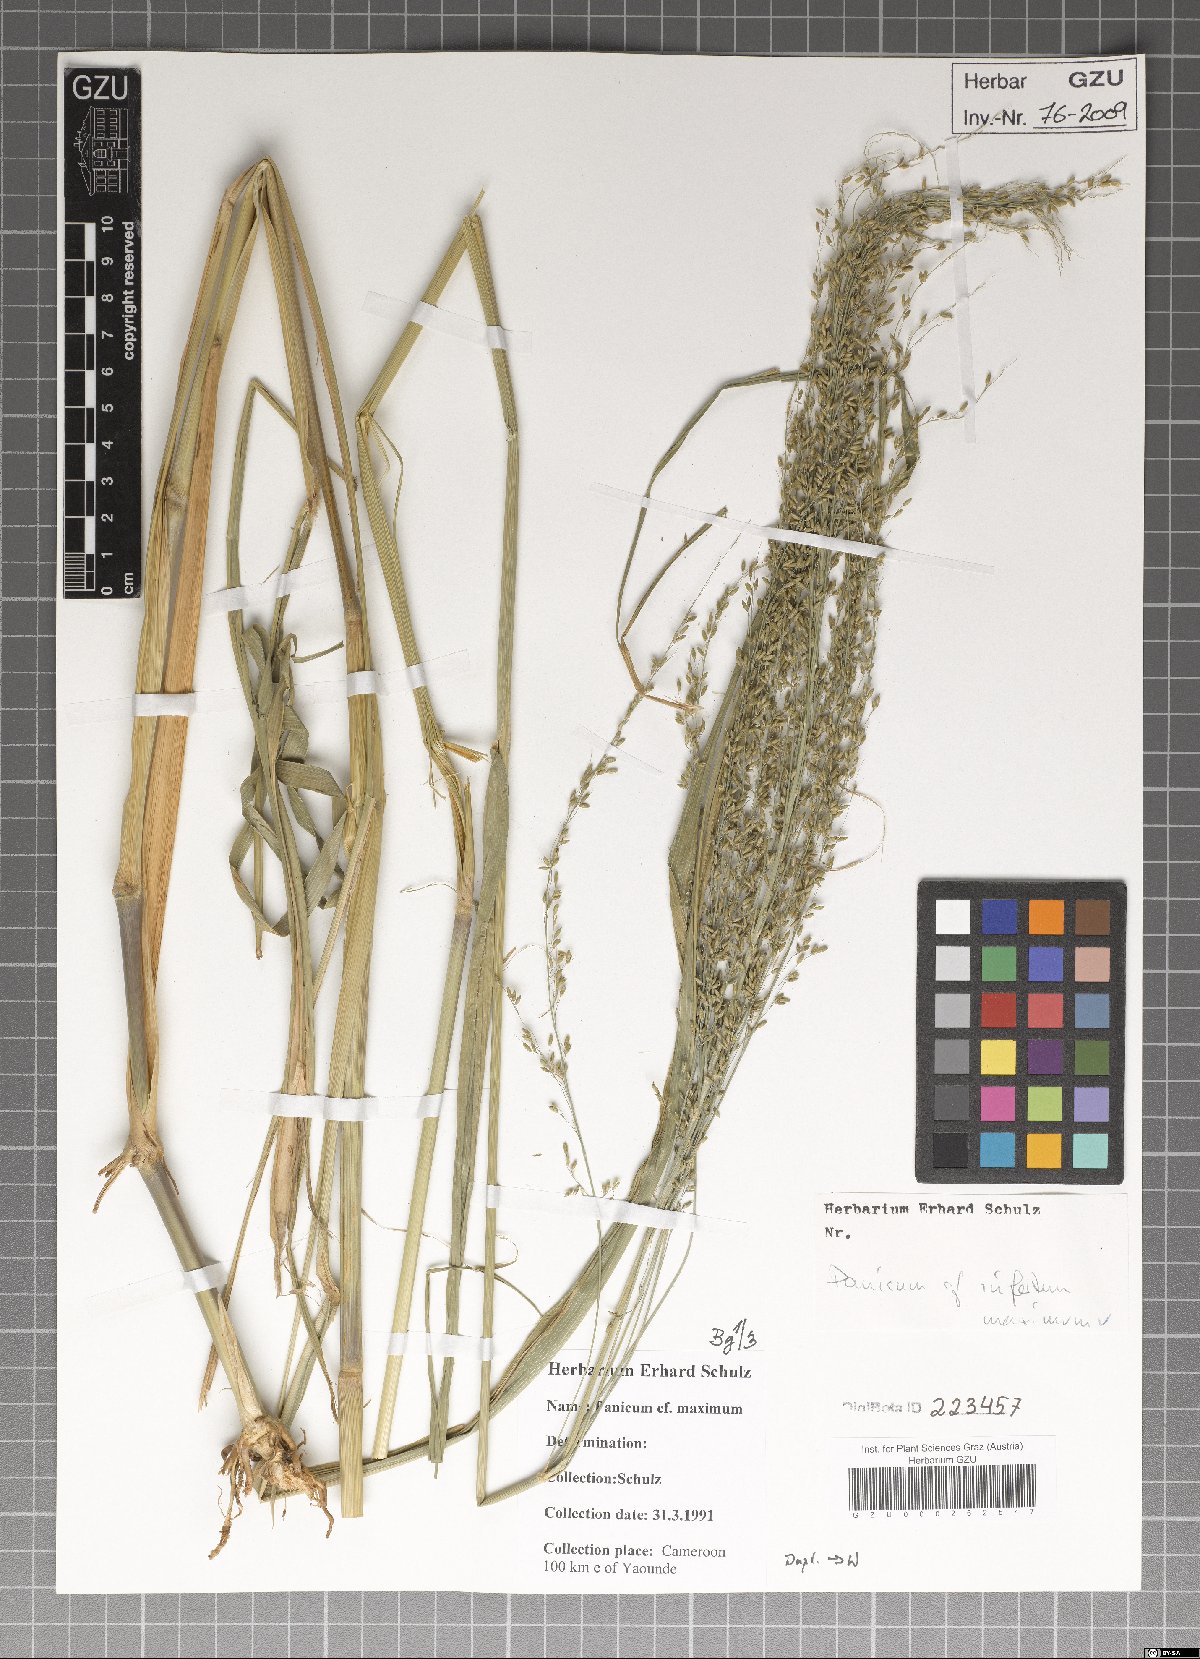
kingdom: Plantae
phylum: Tracheophyta
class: Liliopsida
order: Poales
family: Poaceae
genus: Megathyrsus
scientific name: Megathyrsus maximus
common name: Guineagrass
